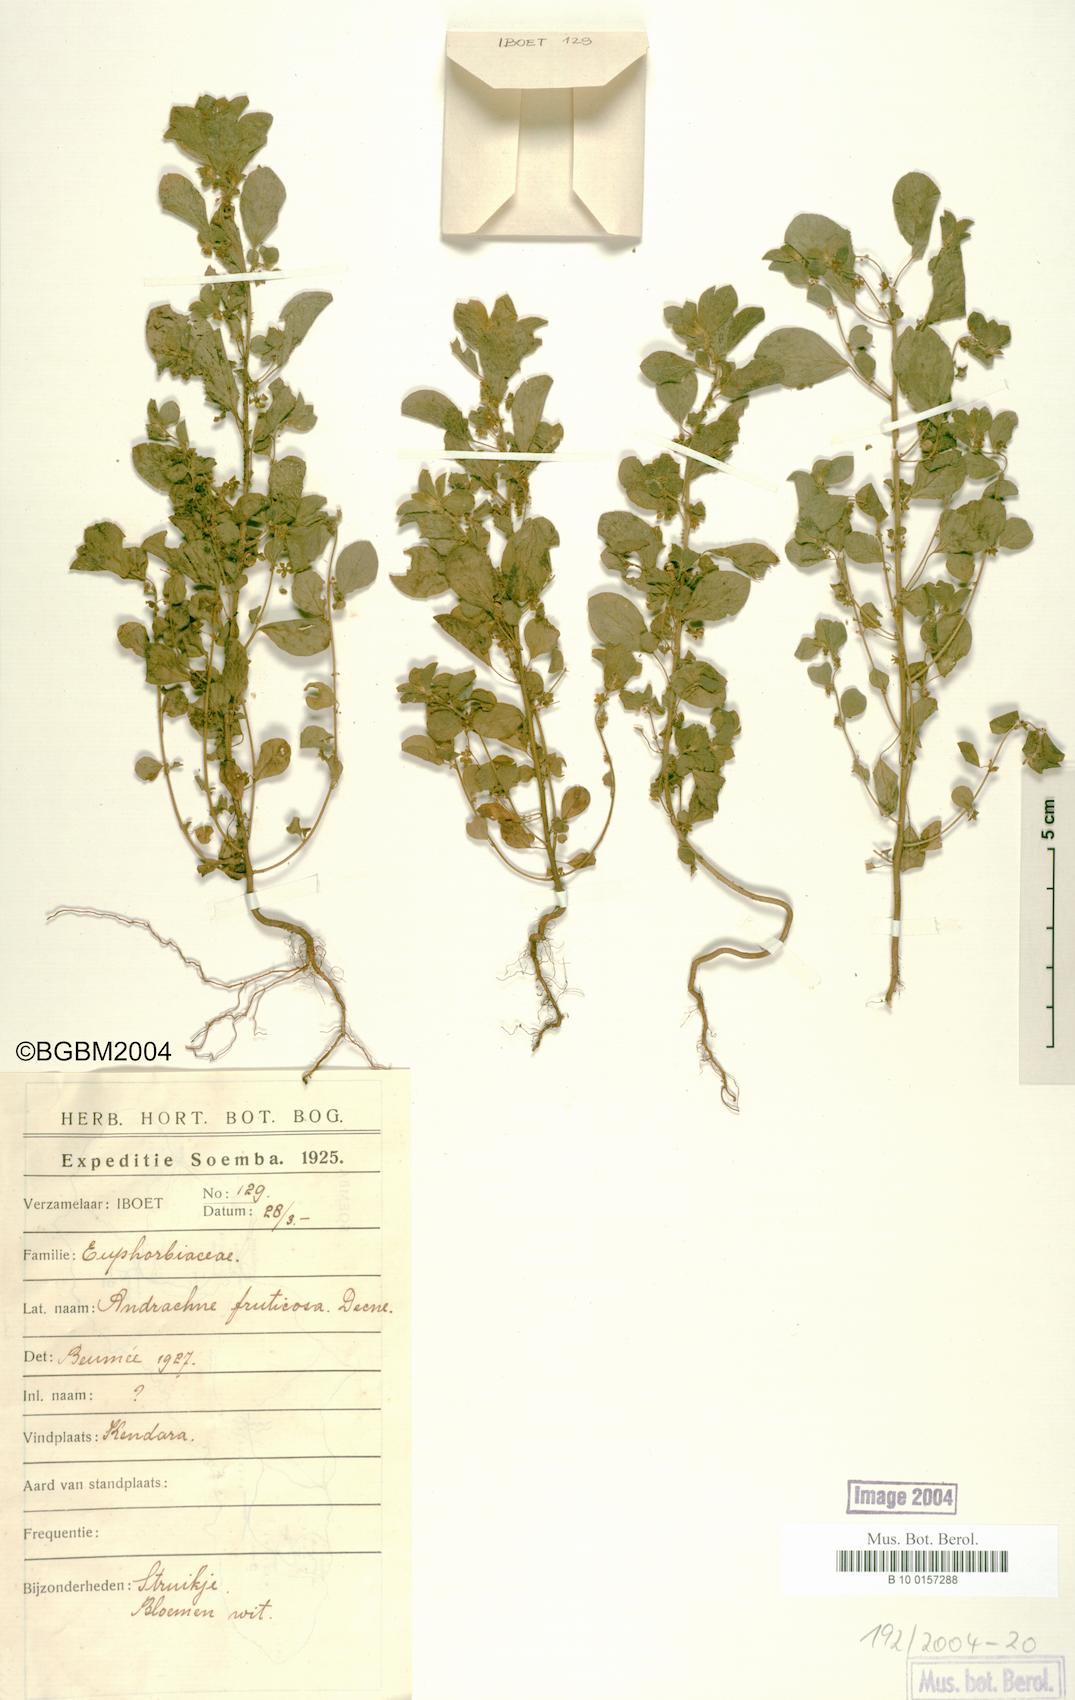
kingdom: Plantae
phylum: Tracheophyta
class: Magnoliopsida
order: Malpighiales
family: Phyllanthaceae
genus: Notoleptopus
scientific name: Notoleptopus decaisnei
